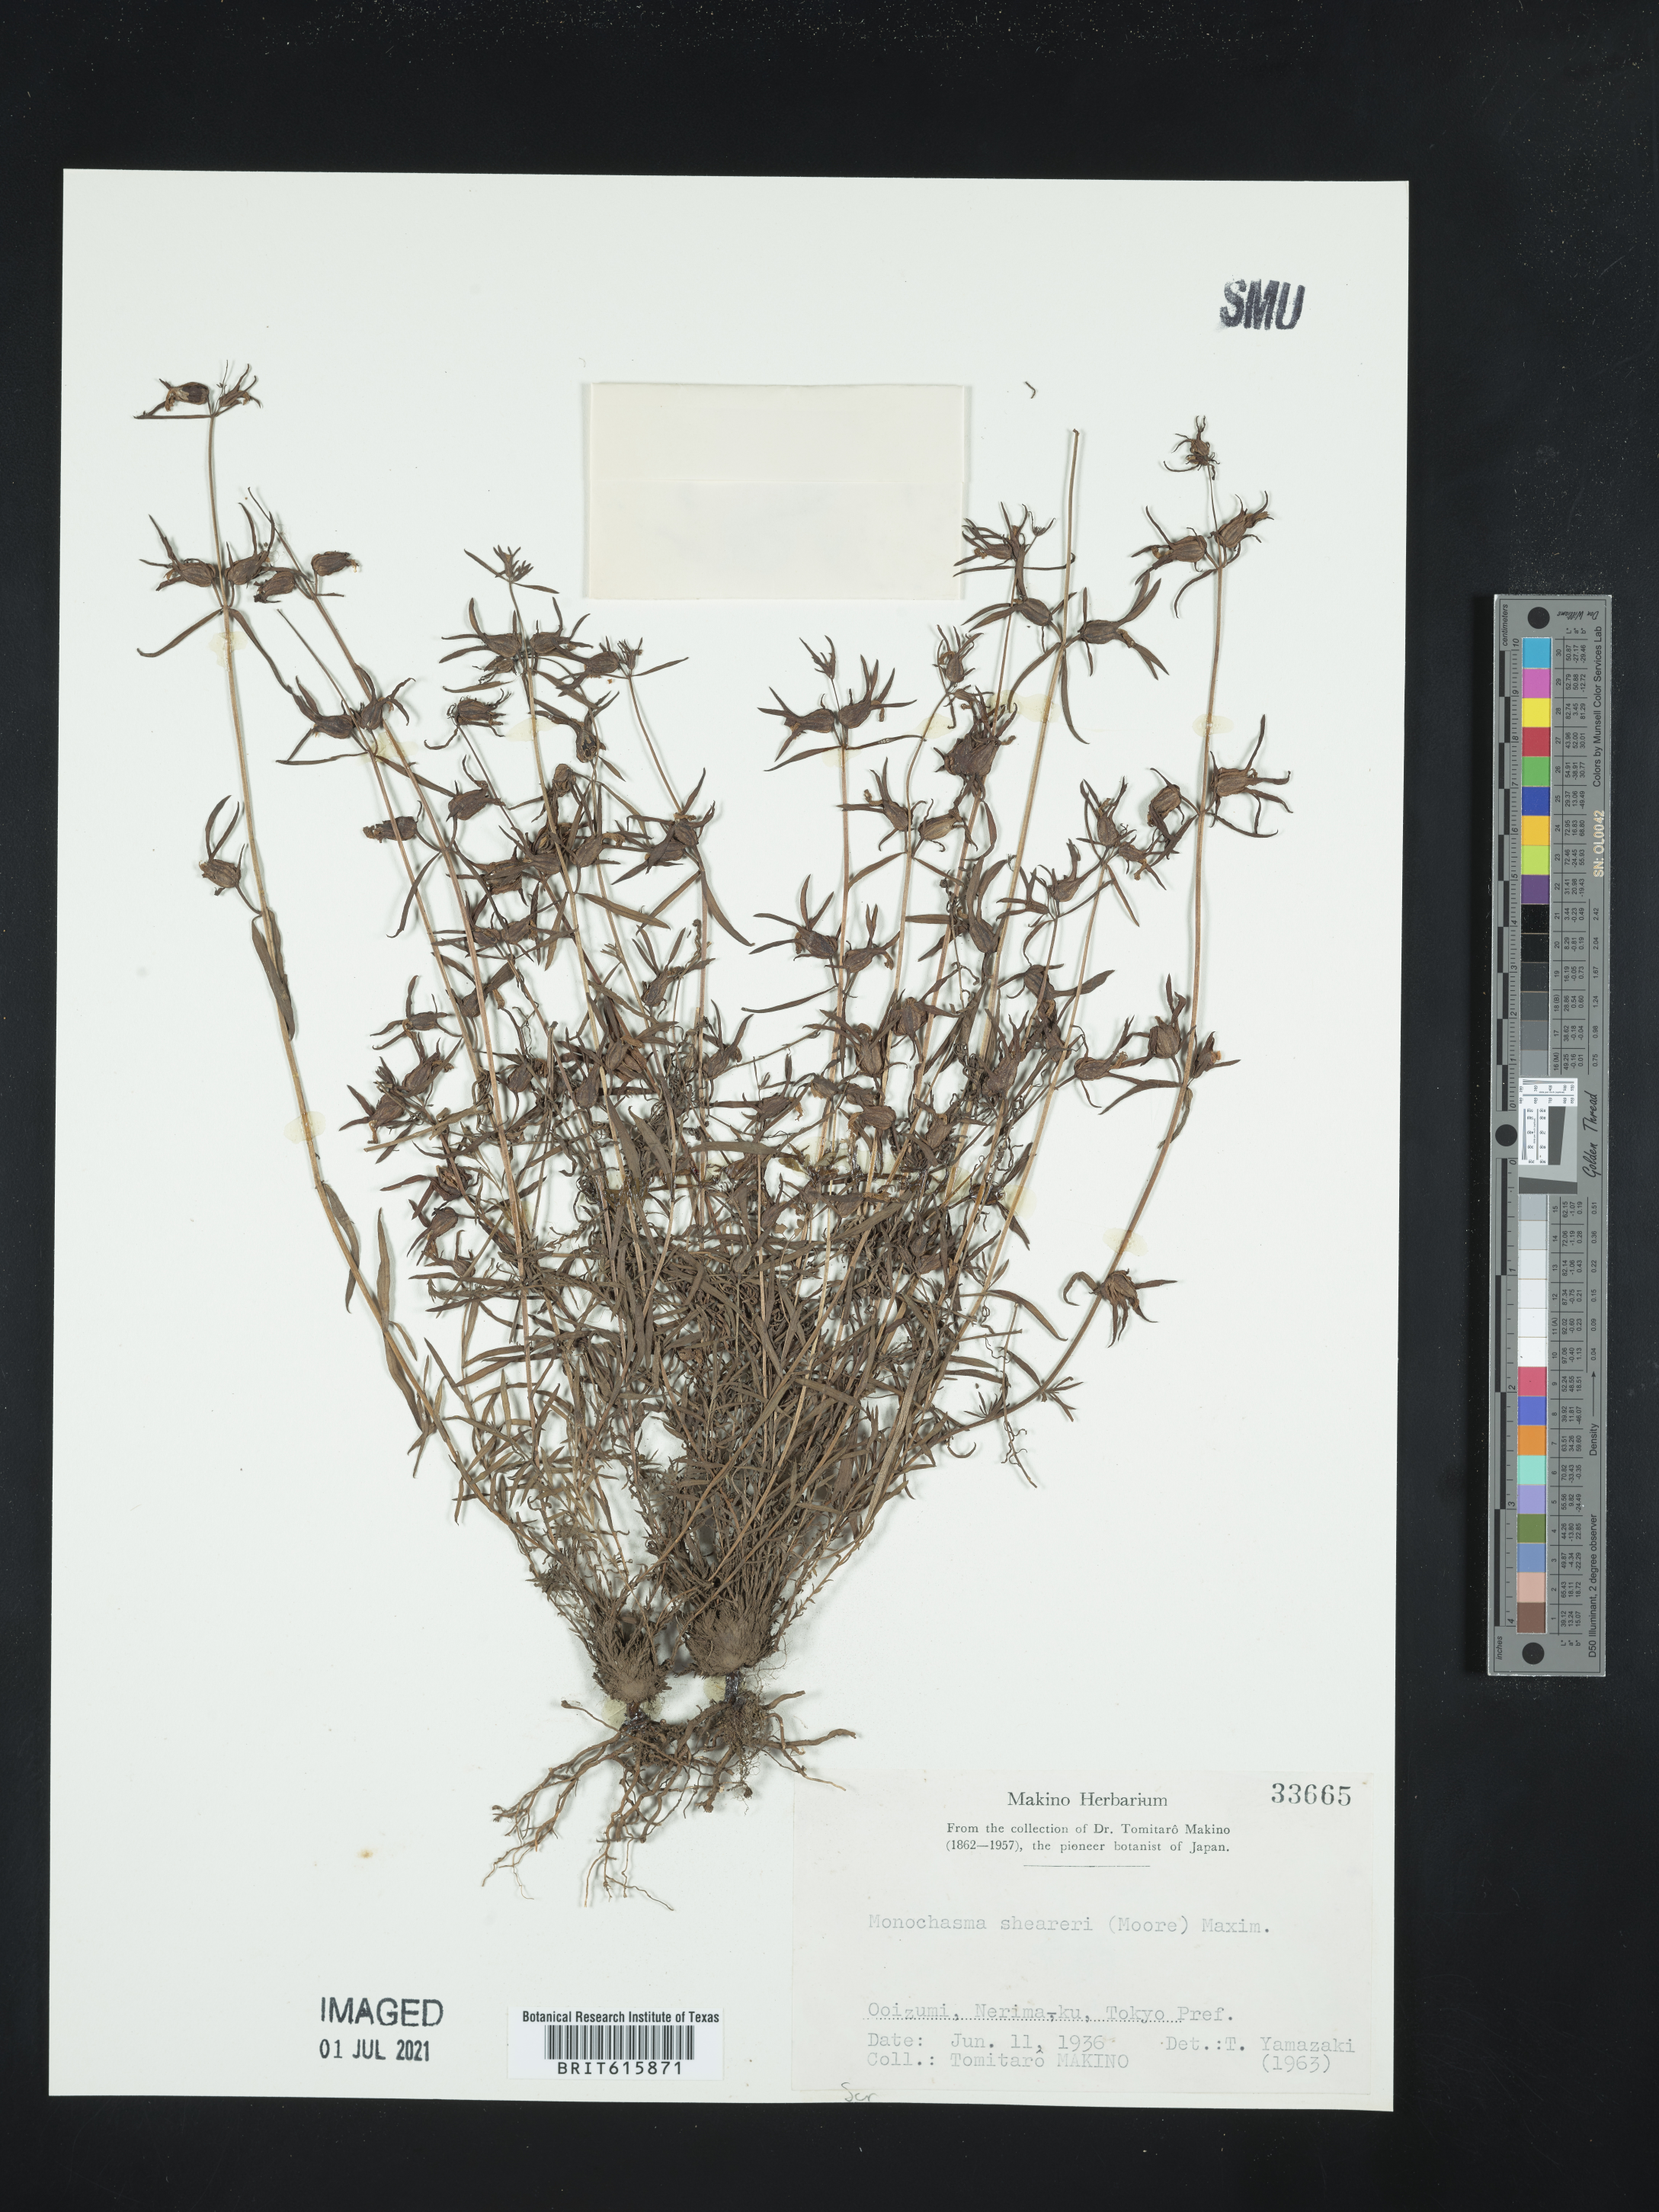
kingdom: Plantae
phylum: Tracheophyta
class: Magnoliopsida
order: Lamiales
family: Orobanchaceae
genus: Monochasma
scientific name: Monochasma sheareri
